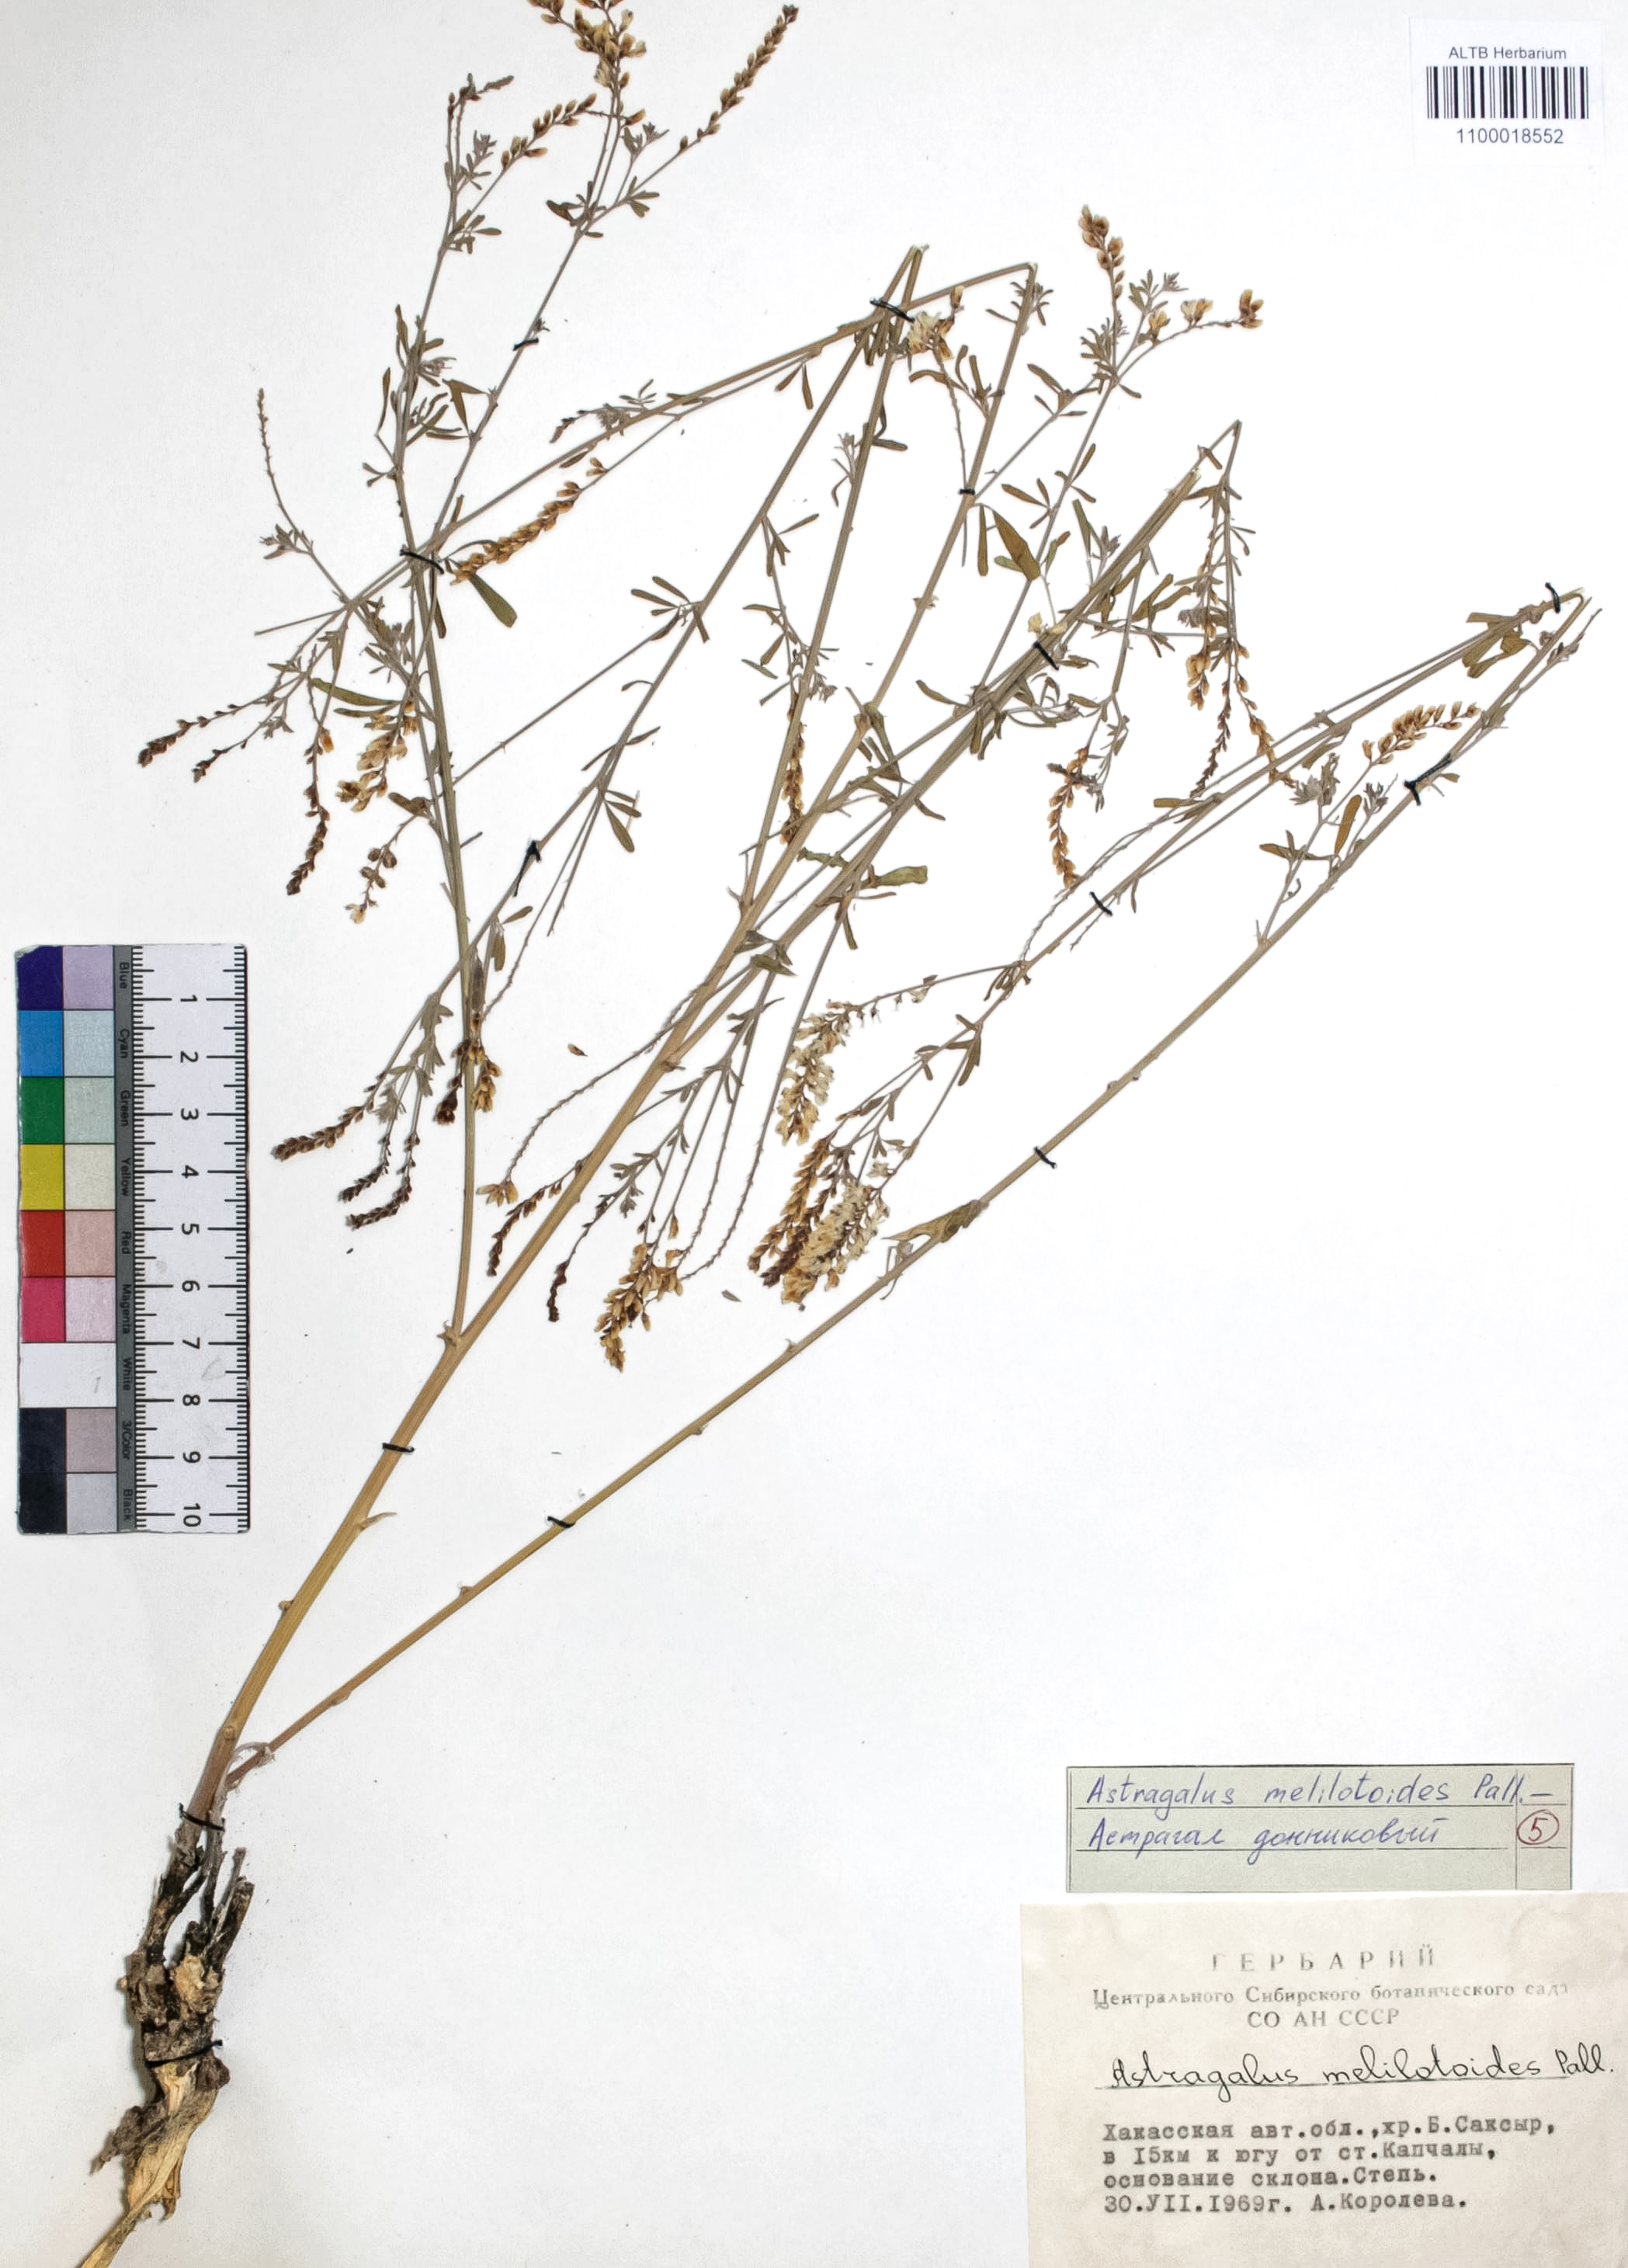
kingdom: Plantae
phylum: Tracheophyta
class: Magnoliopsida
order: Fabales
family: Fabaceae
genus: Astragalus
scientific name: Astragalus melilotoides
